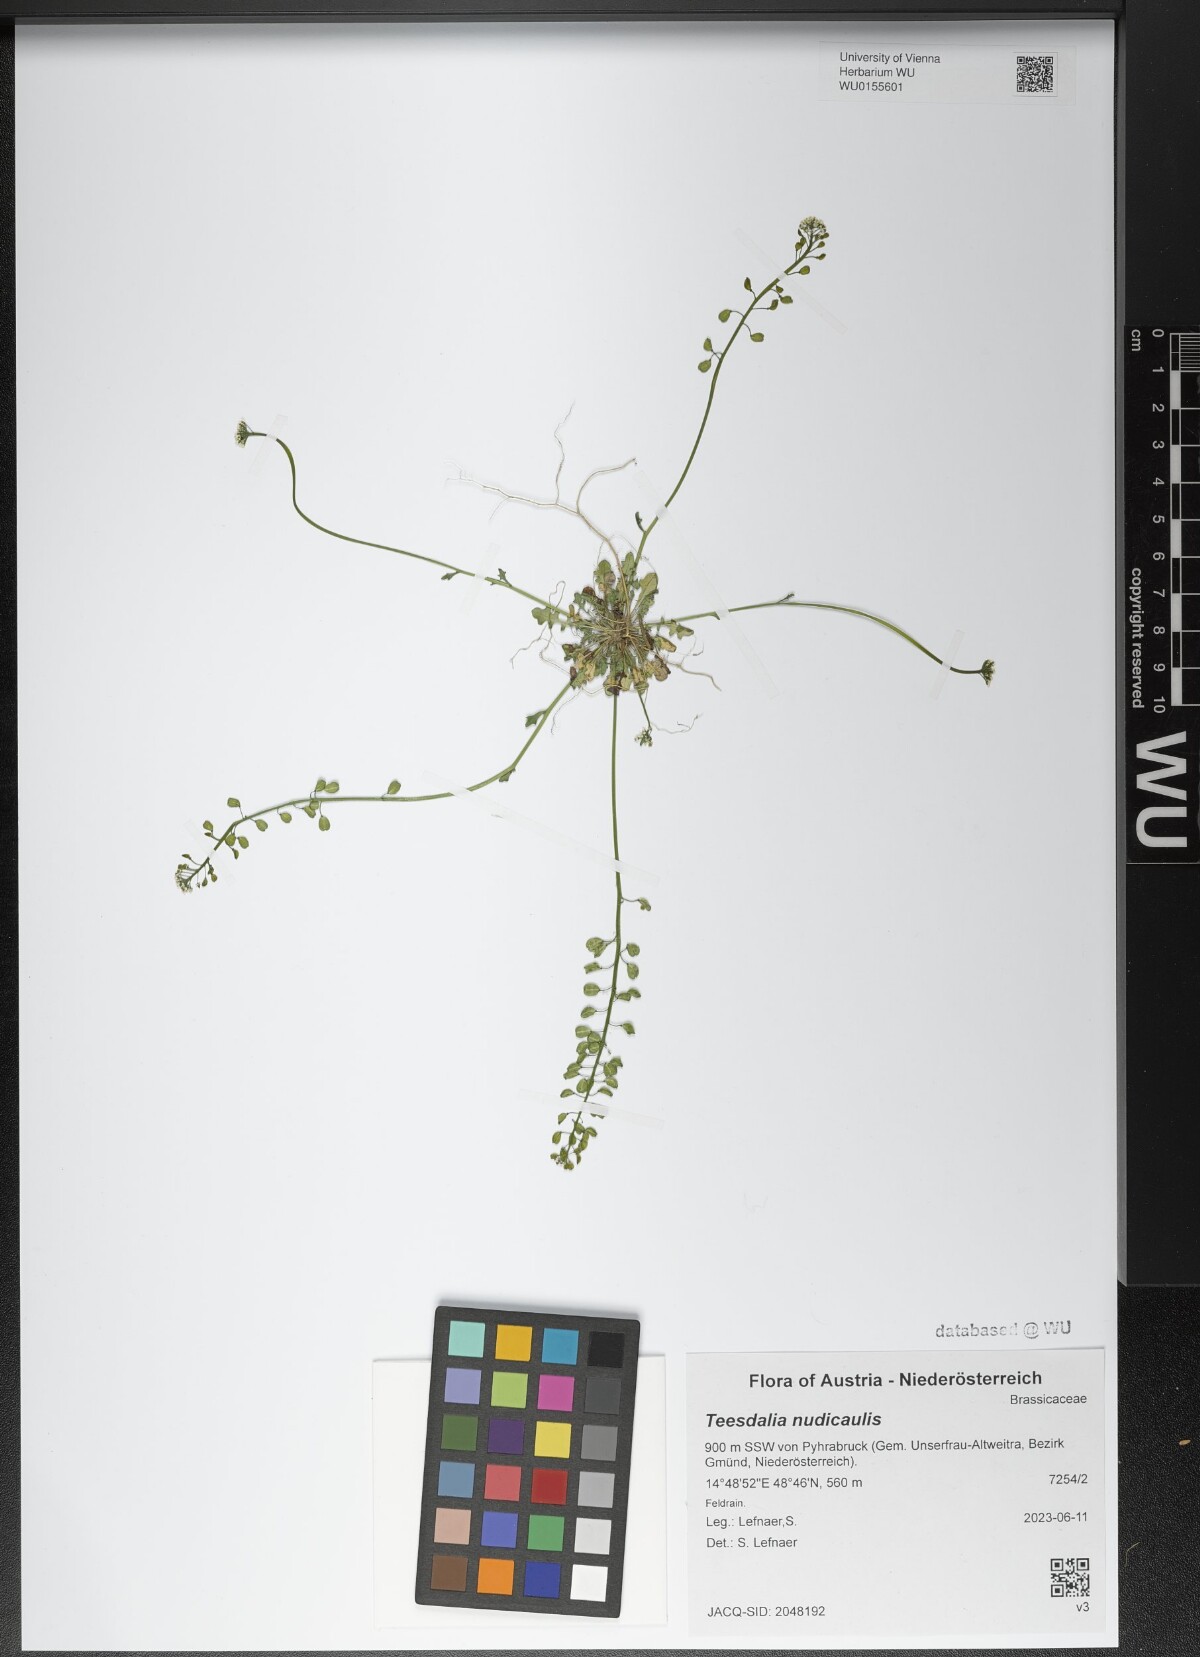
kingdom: Plantae
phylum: Tracheophyta
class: Magnoliopsida
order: Brassicales
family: Brassicaceae
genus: Teesdalia
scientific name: Teesdalia nudicaulis
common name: Shepherd's cress
